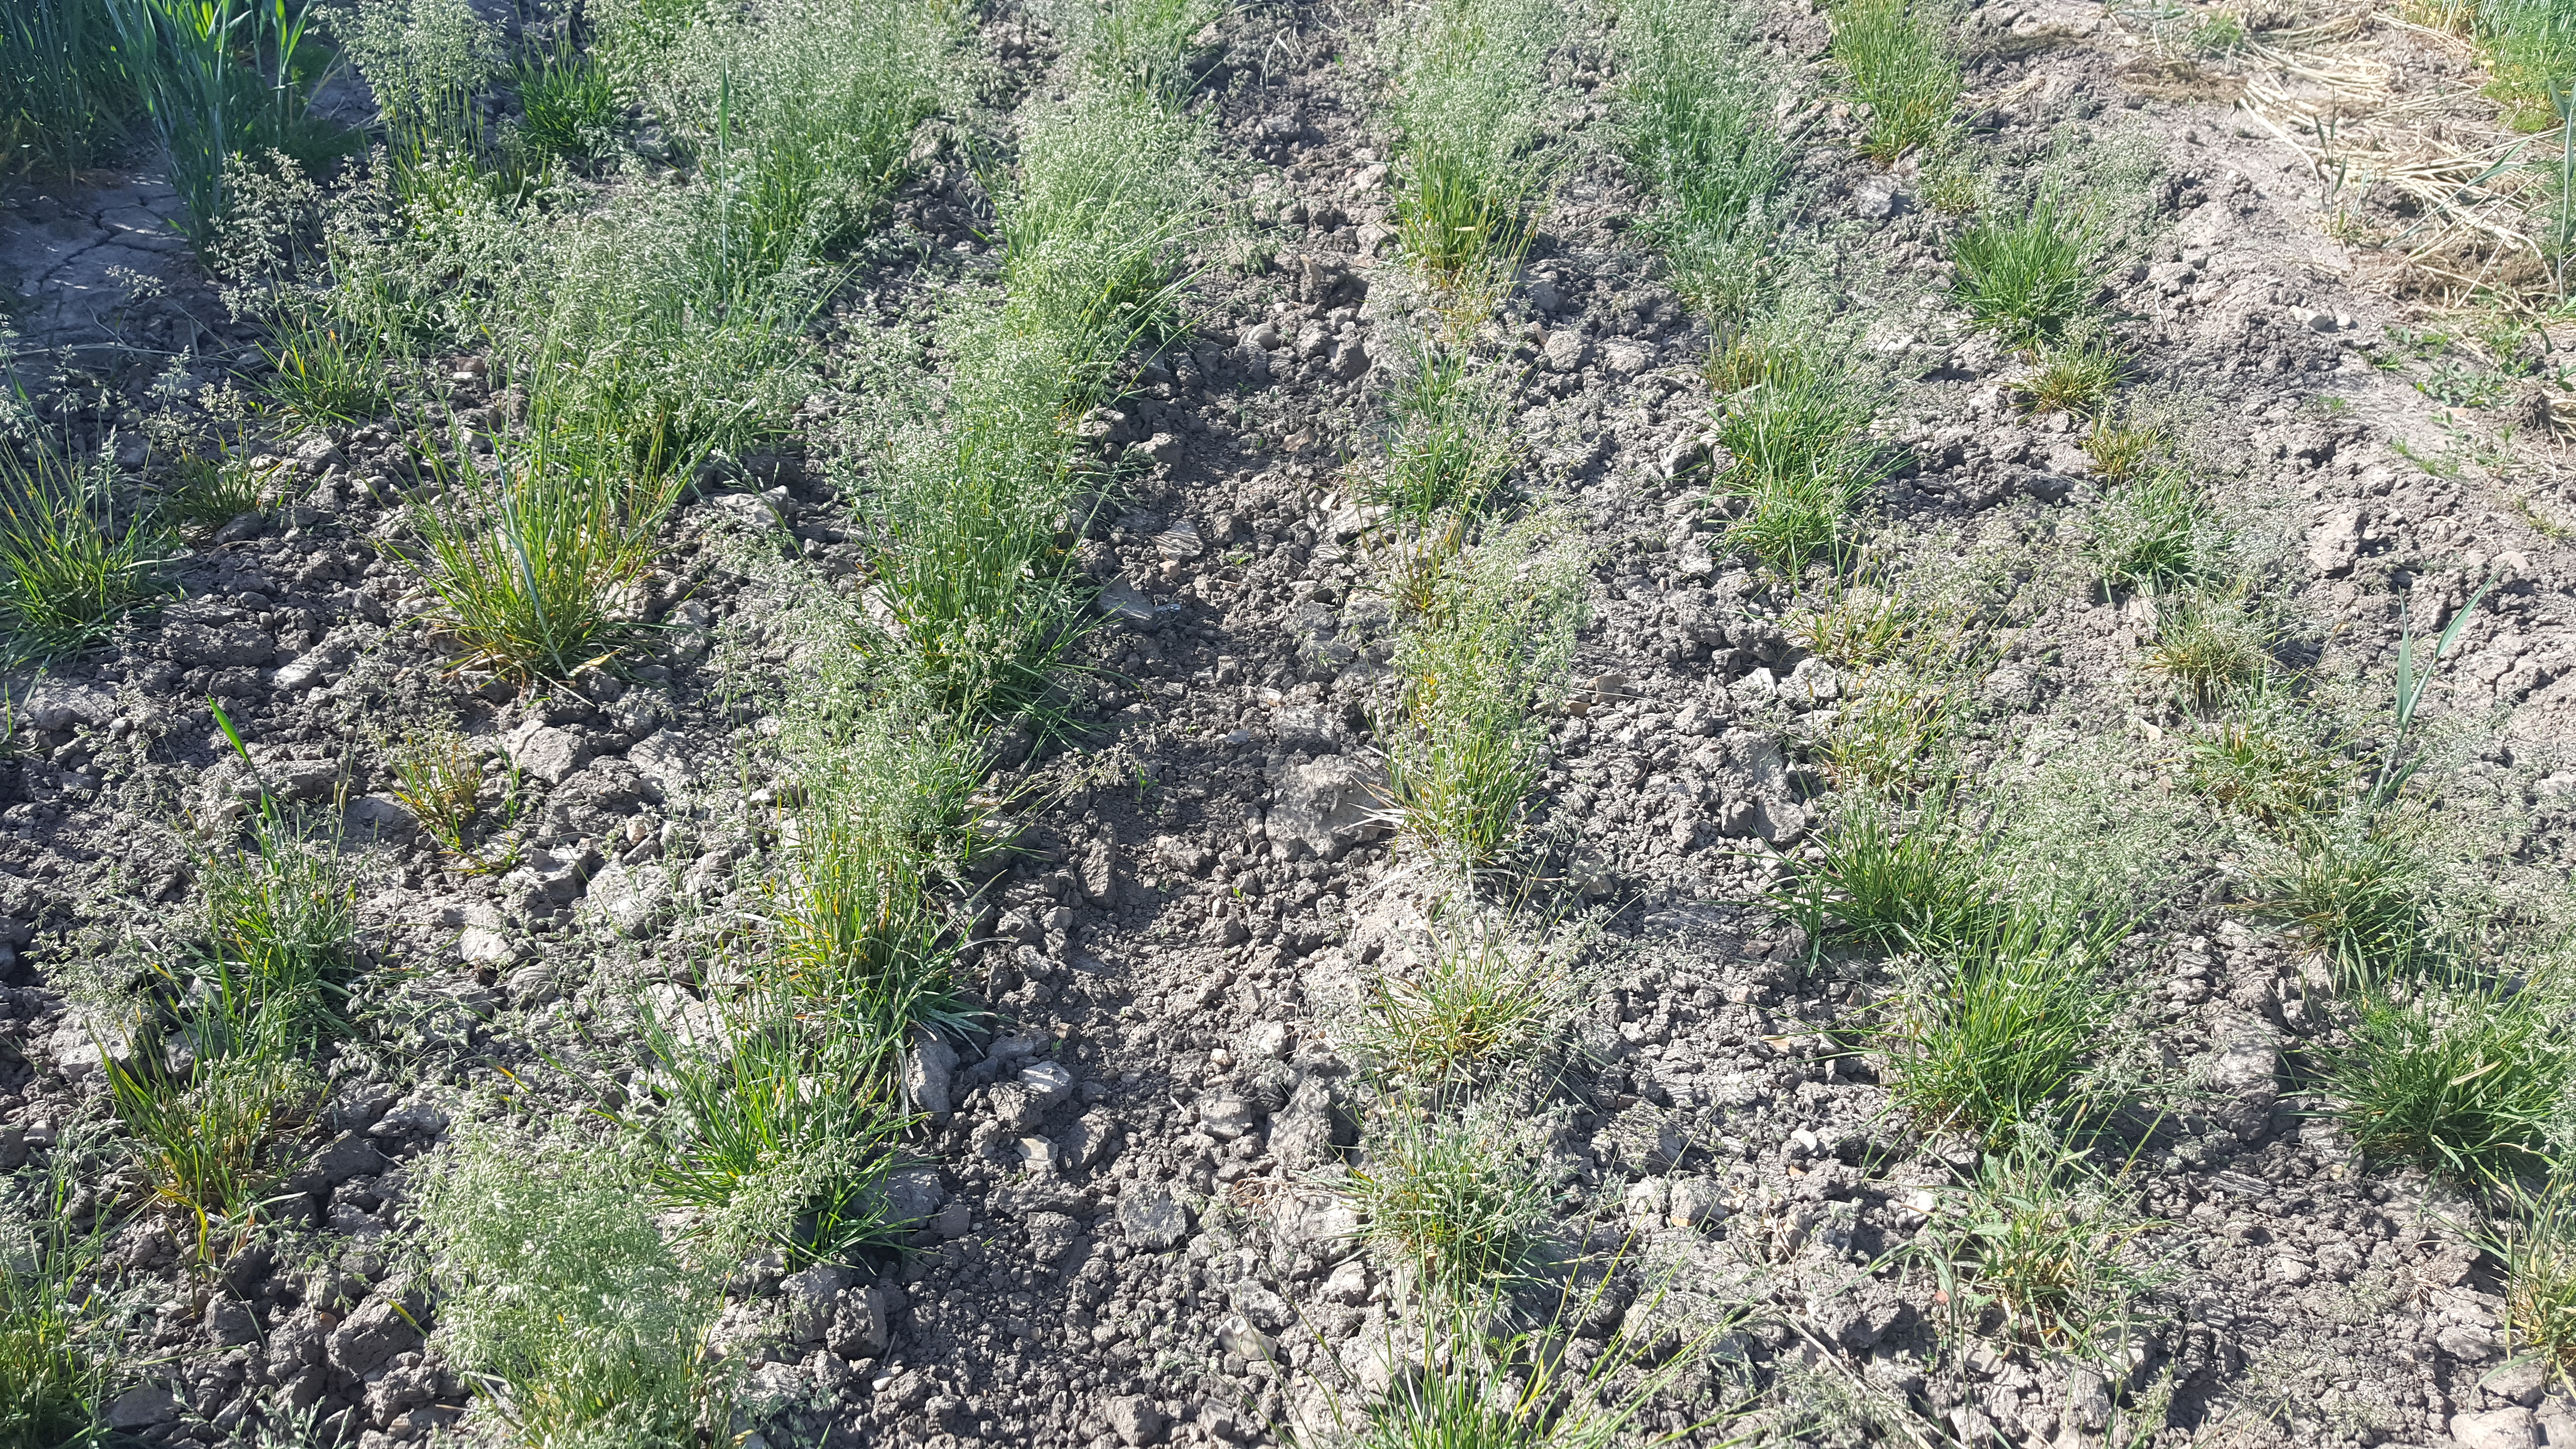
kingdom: Plantae
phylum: Tracheophyta
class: Liliopsida
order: Poales
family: Poaceae
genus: Poa
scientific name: Poa pratensis
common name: Kentucky bluegrass
